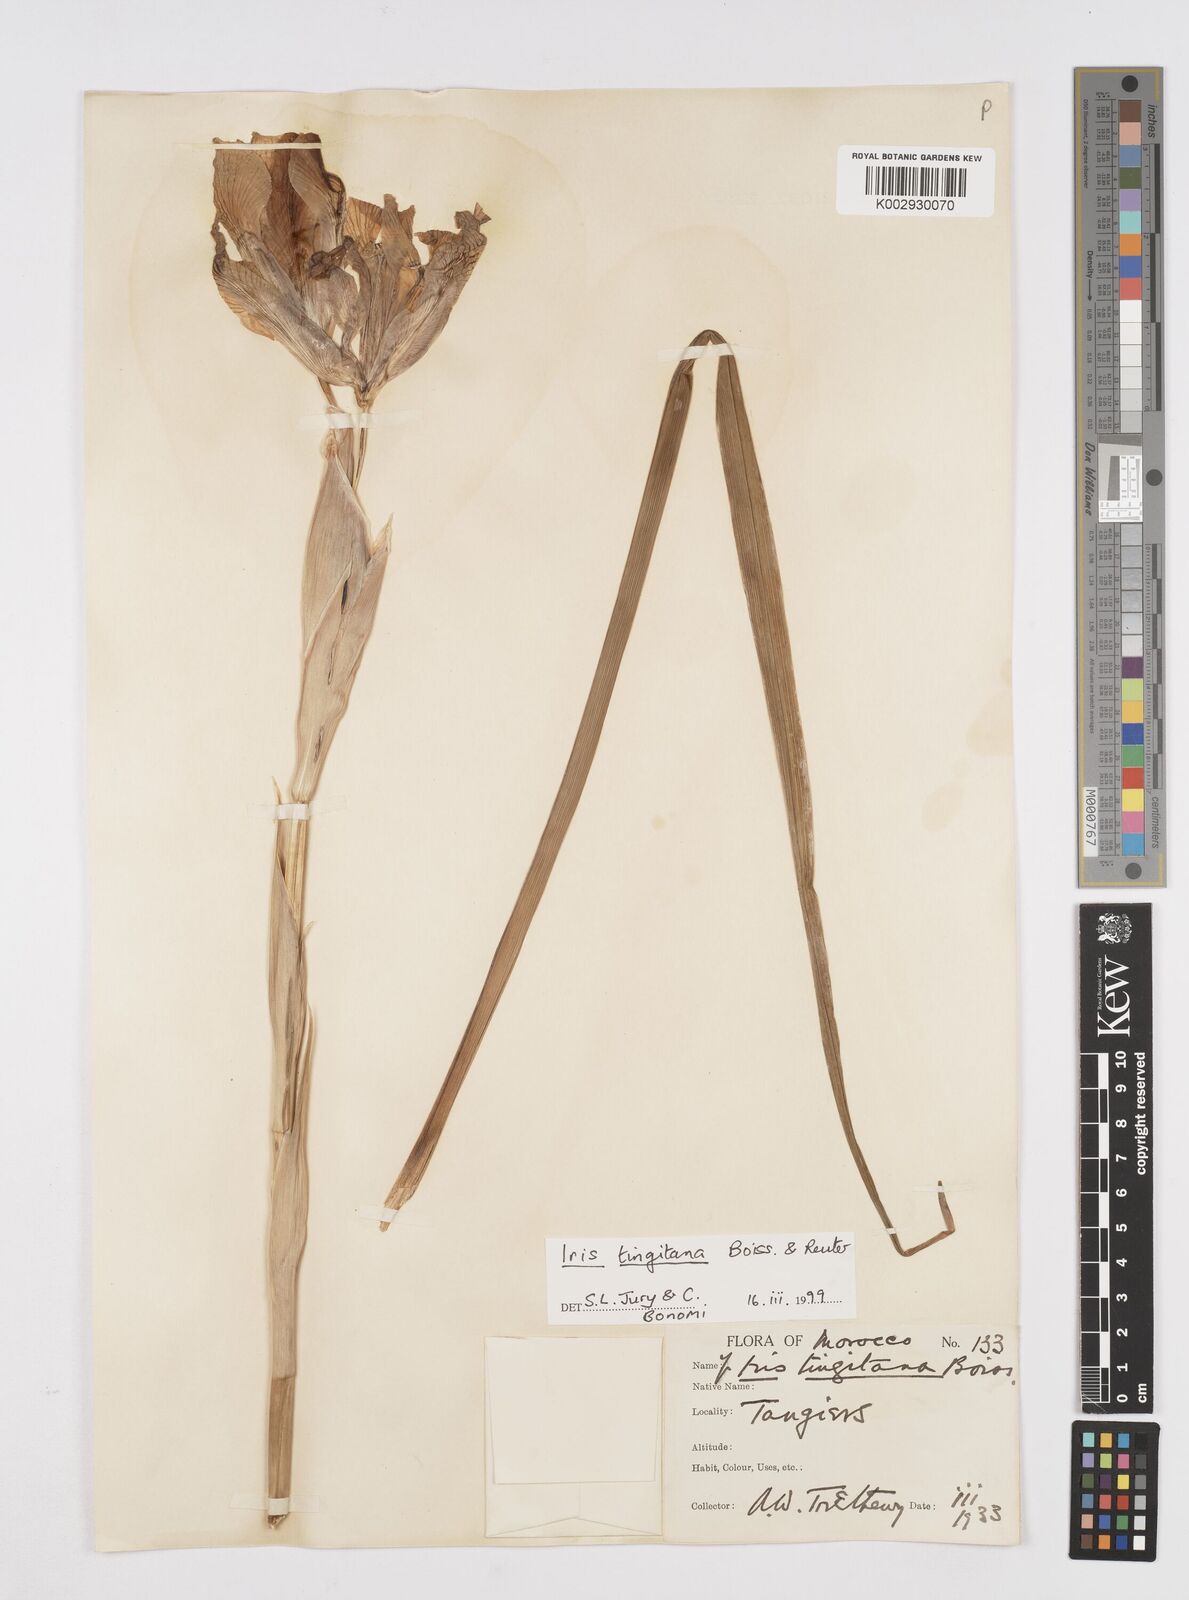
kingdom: Plantae
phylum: Tracheophyta
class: Liliopsida
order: Asparagales
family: Iridaceae
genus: Iris
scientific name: Iris tingitana
